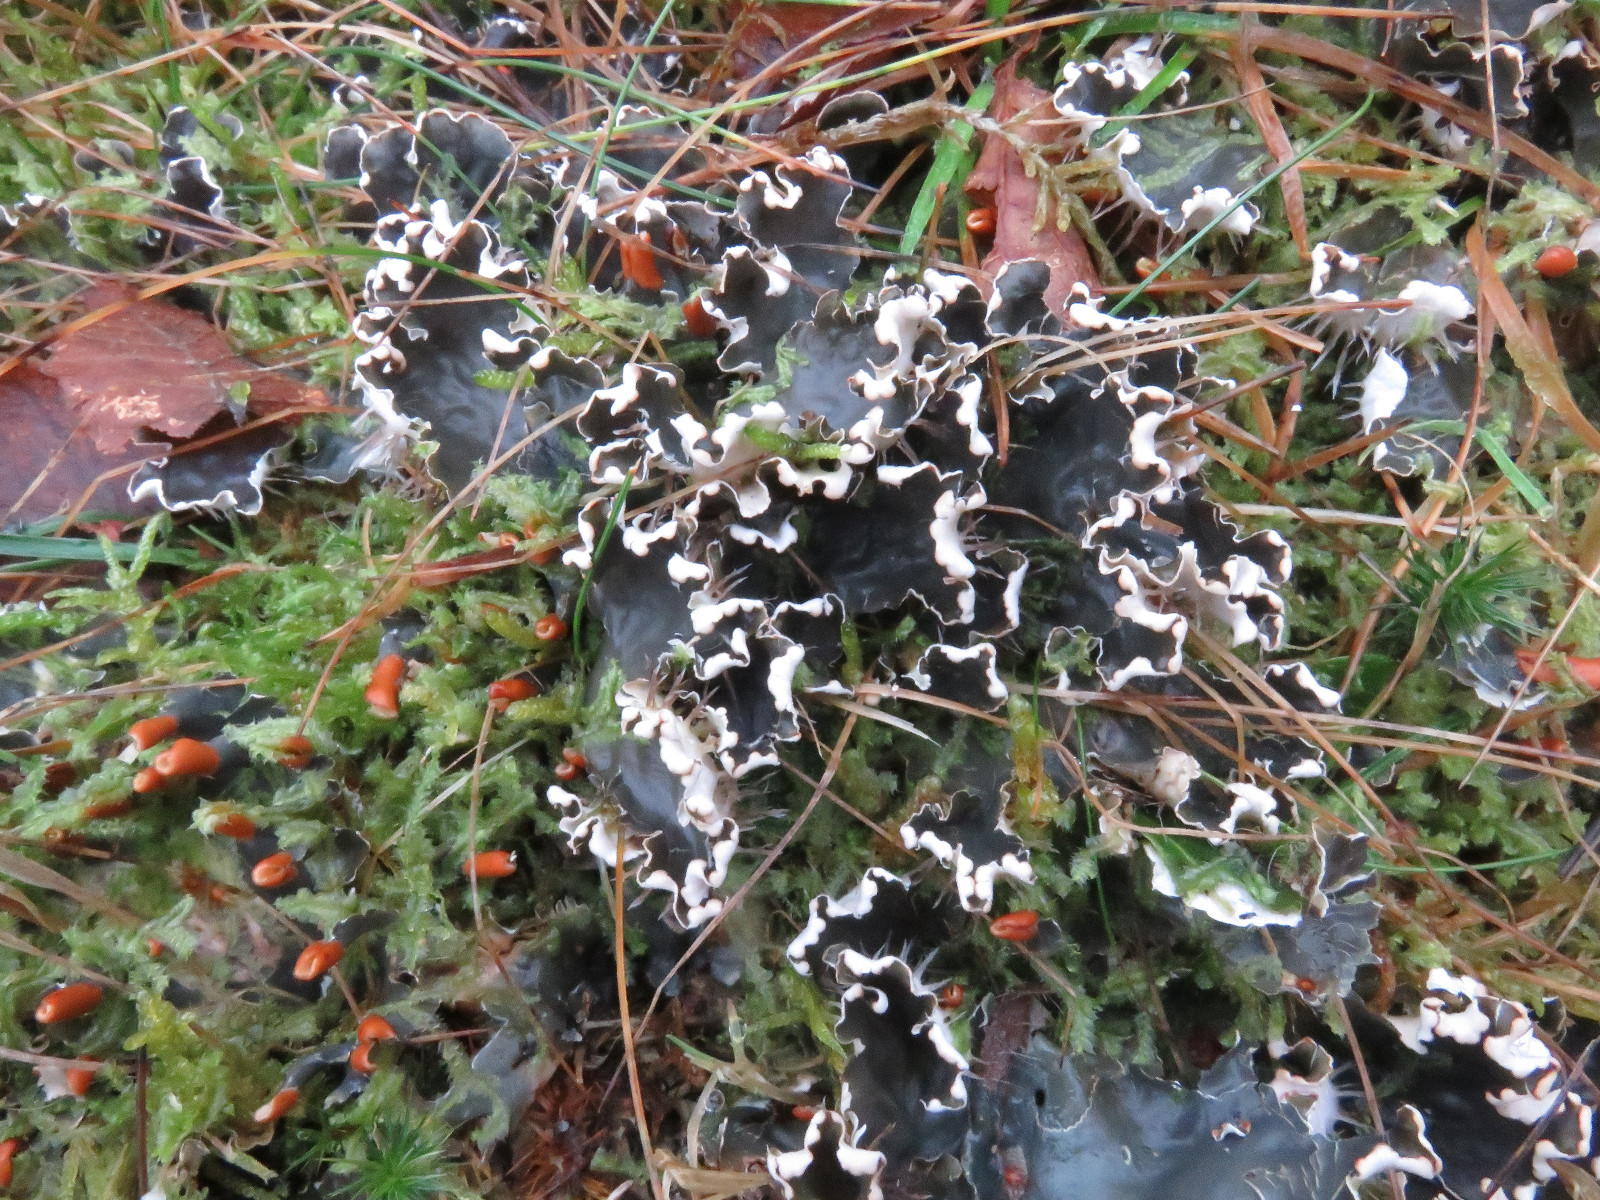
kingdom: Fungi
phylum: Ascomycota
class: Lecanoromycetes
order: Peltigerales
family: Peltigeraceae
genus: Peltigera
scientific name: Peltigera hymenina
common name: hinde-skjoldlav
